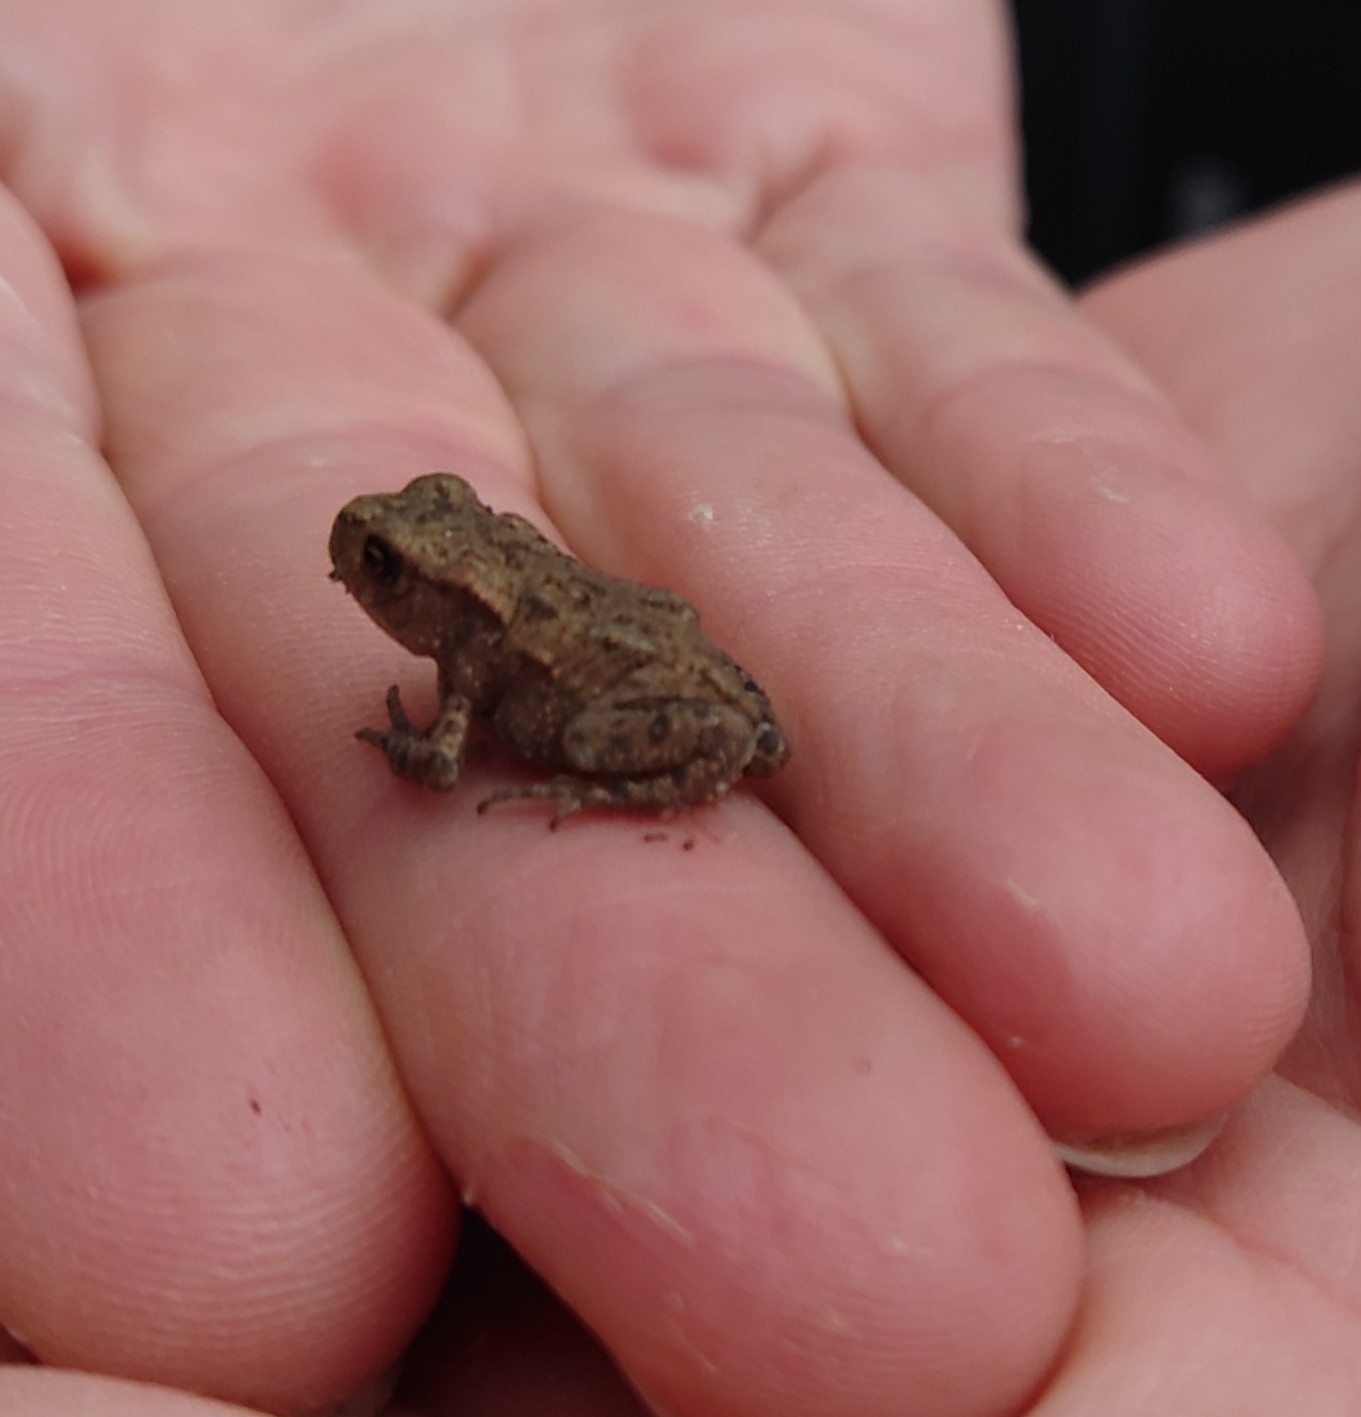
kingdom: Animalia
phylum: Chordata
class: Amphibia
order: Anura
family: Bufonidae
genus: Bufo
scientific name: Bufo bufo
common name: Skrubtudse
